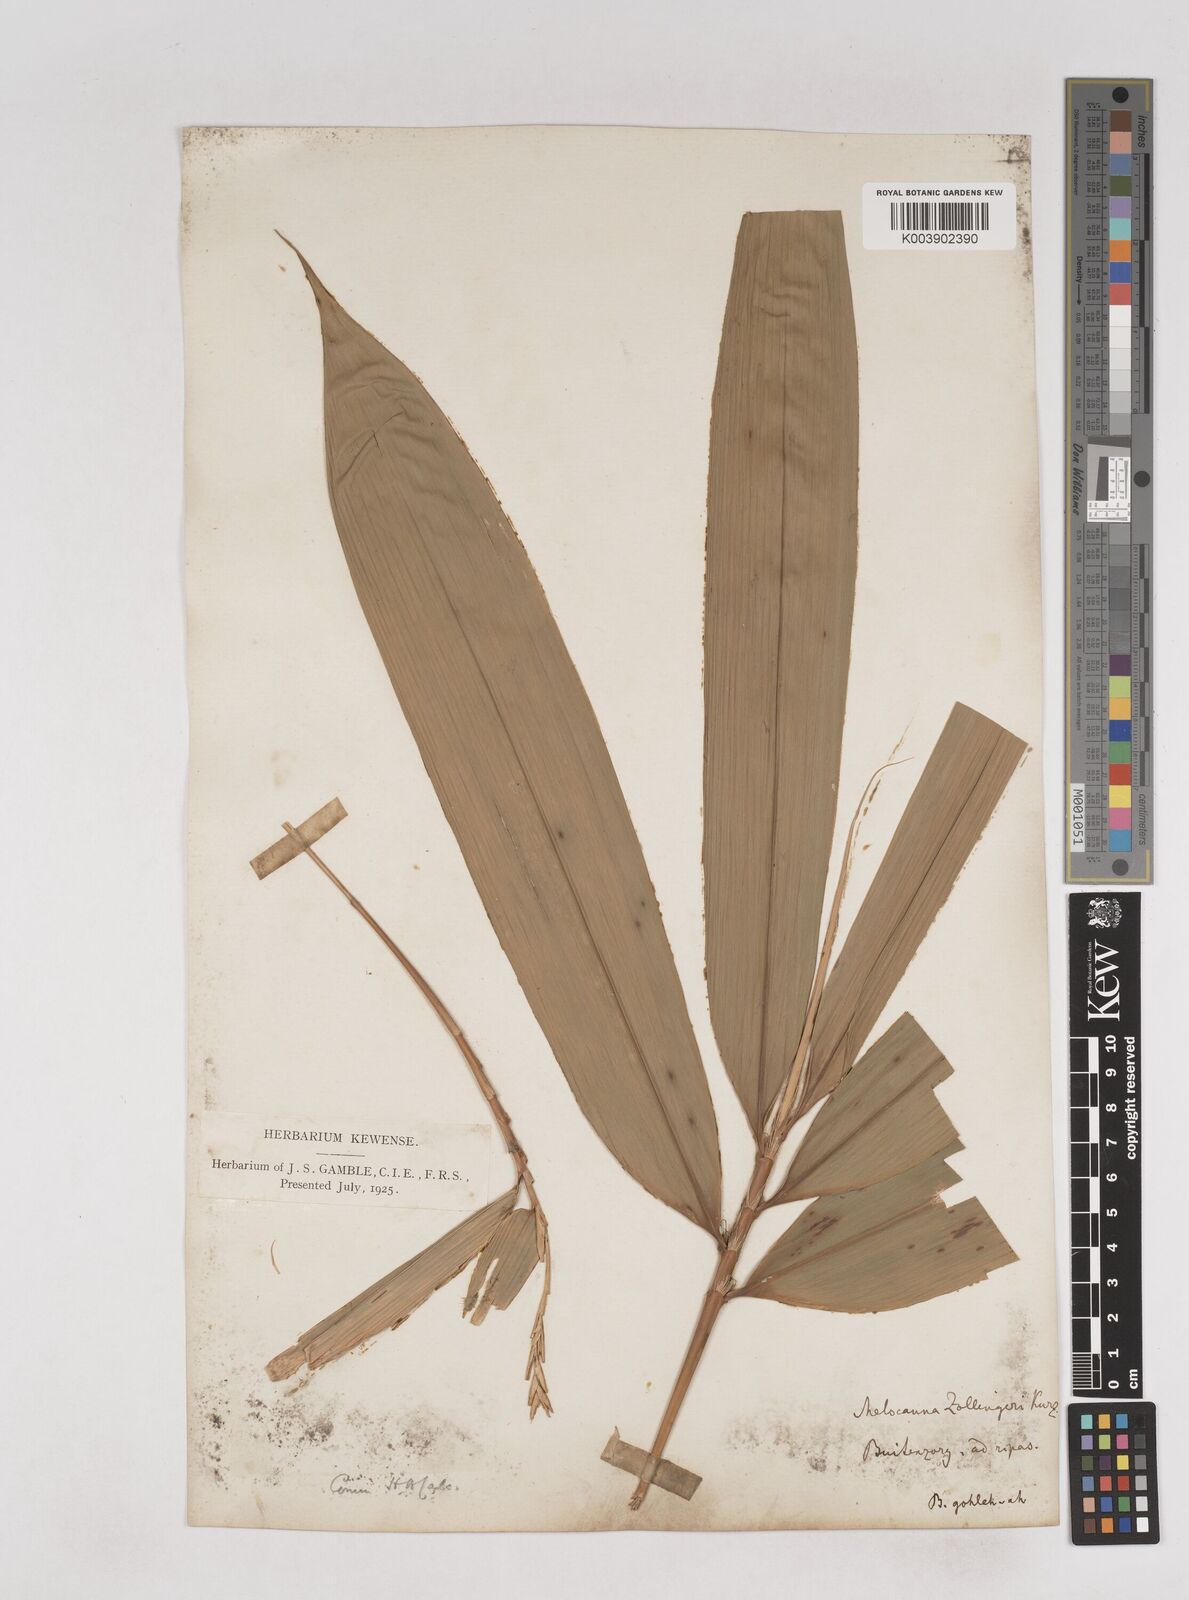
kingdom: Plantae
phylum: Tracheophyta
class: Liliopsida
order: Poales
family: Poaceae
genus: Schizostachyum
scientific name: Schizostachyum zollingeri
